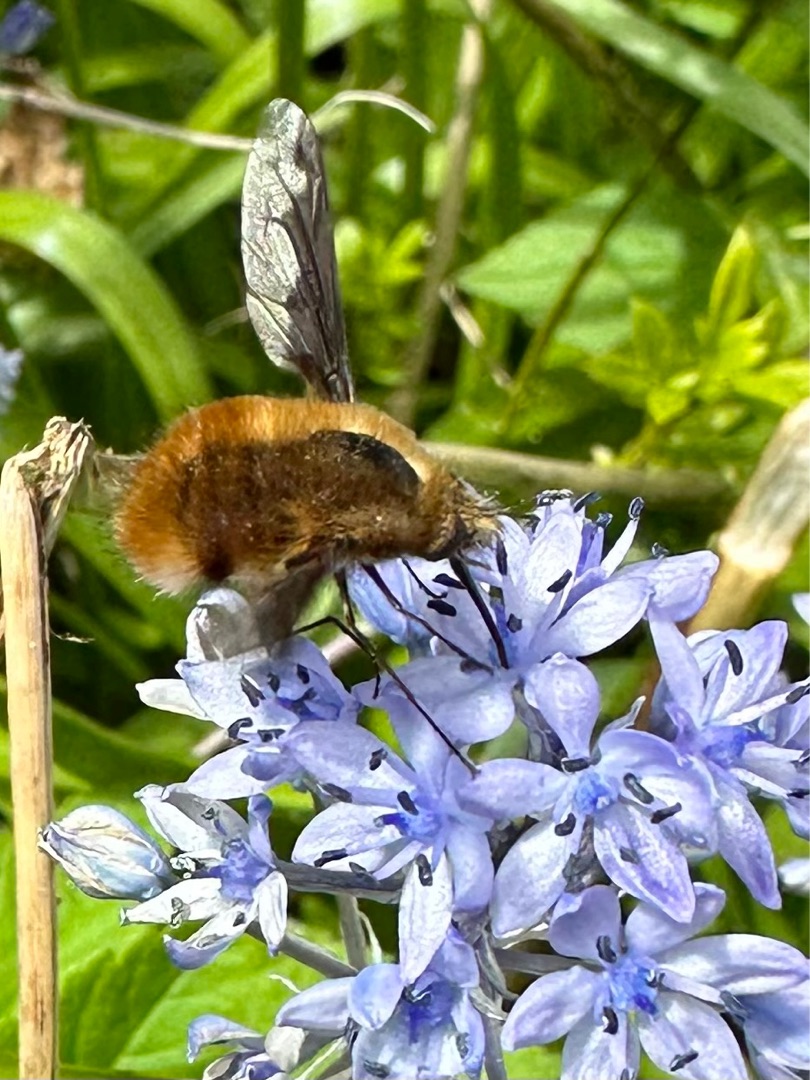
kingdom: Animalia
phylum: Arthropoda
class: Insecta
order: Diptera
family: Bombyliidae
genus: Bombylius
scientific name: Bombylius major
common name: Stor humleflue
